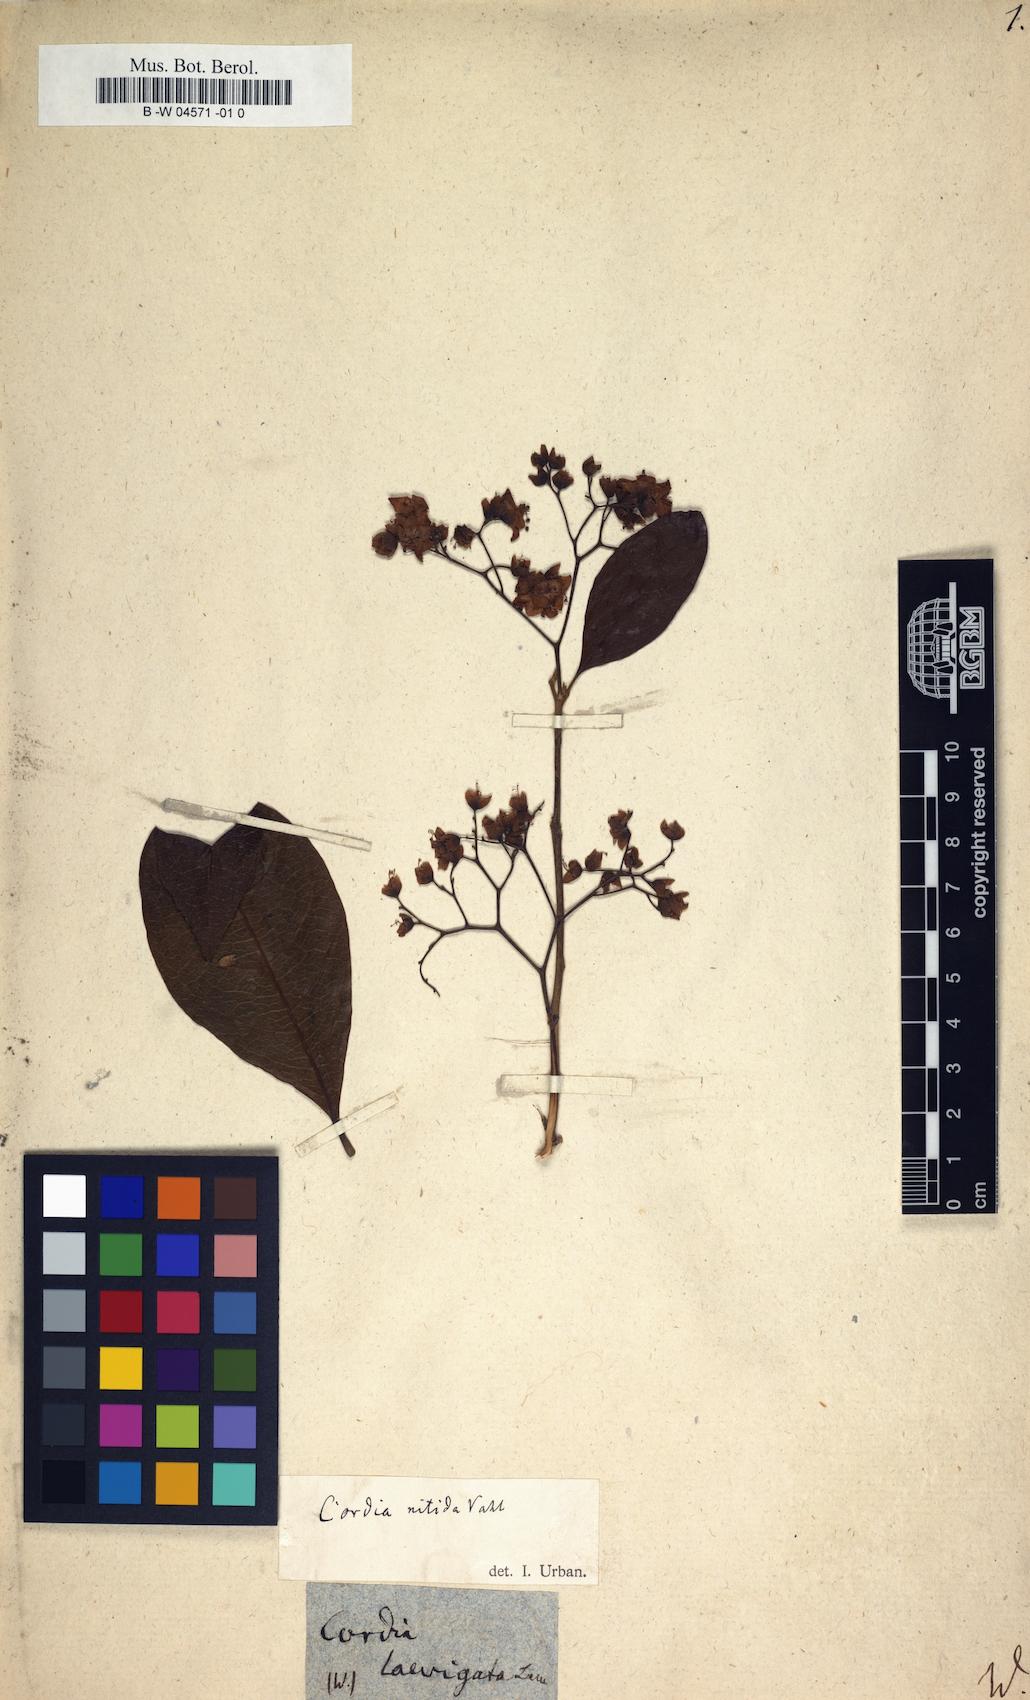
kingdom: Plantae
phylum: Tracheophyta
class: Magnoliopsida
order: Boraginales
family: Cordiaceae
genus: Cordia
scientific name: Cordia laevigata
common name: Clam cherry
